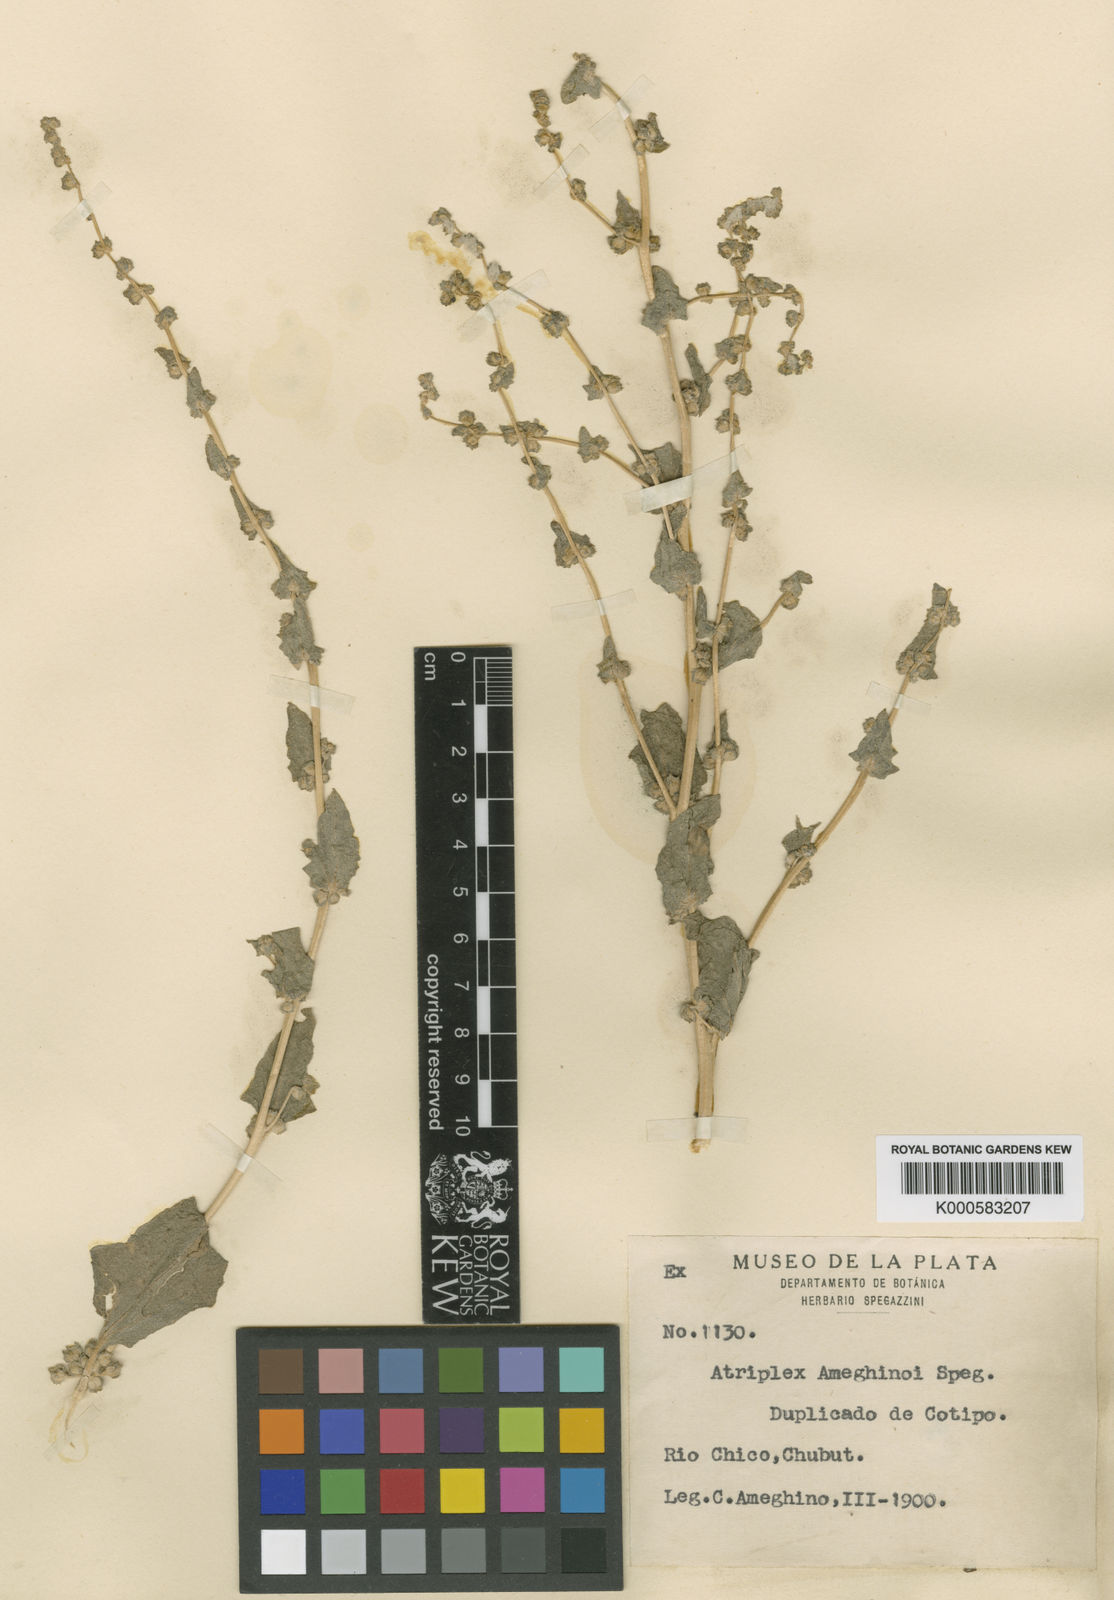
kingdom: Plantae
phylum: Tracheophyta
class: Magnoliopsida
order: Caryophyllales
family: Amaranthaceae
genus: Atriplex
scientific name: Atriplex ameghinoi
